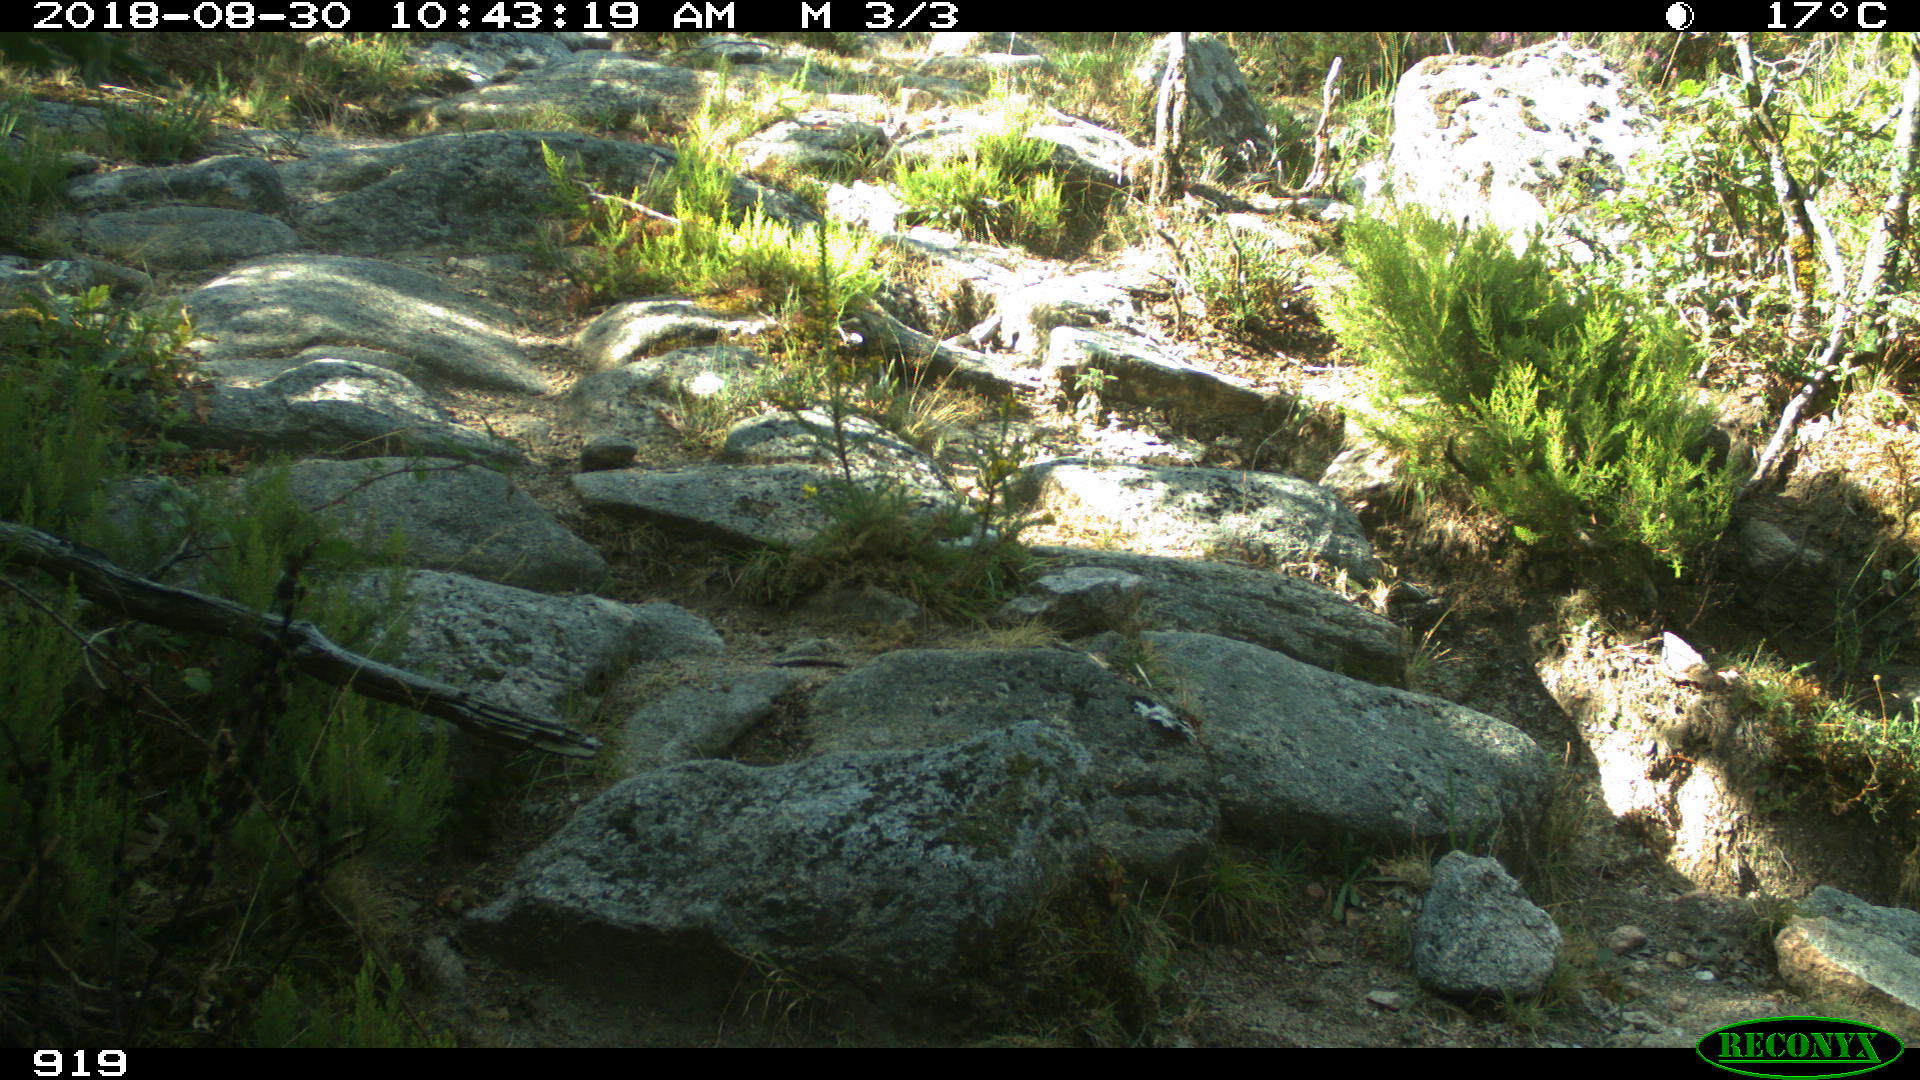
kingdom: Animalia
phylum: Chordata
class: Mammalia
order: Artiodactyla
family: Bovidae
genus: Bos
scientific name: Bos taurus
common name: Domesticated cattle
